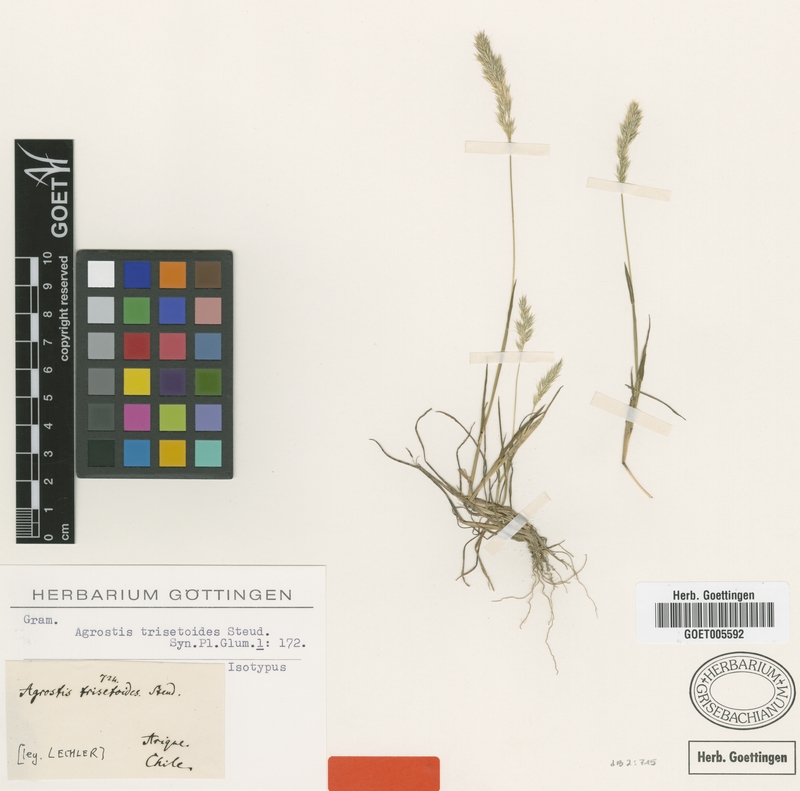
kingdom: Plantae
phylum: Tracheophyta
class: Liliopsida
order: Poales
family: Poaceae
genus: Agrostis
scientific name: Agrostis trisetoides
